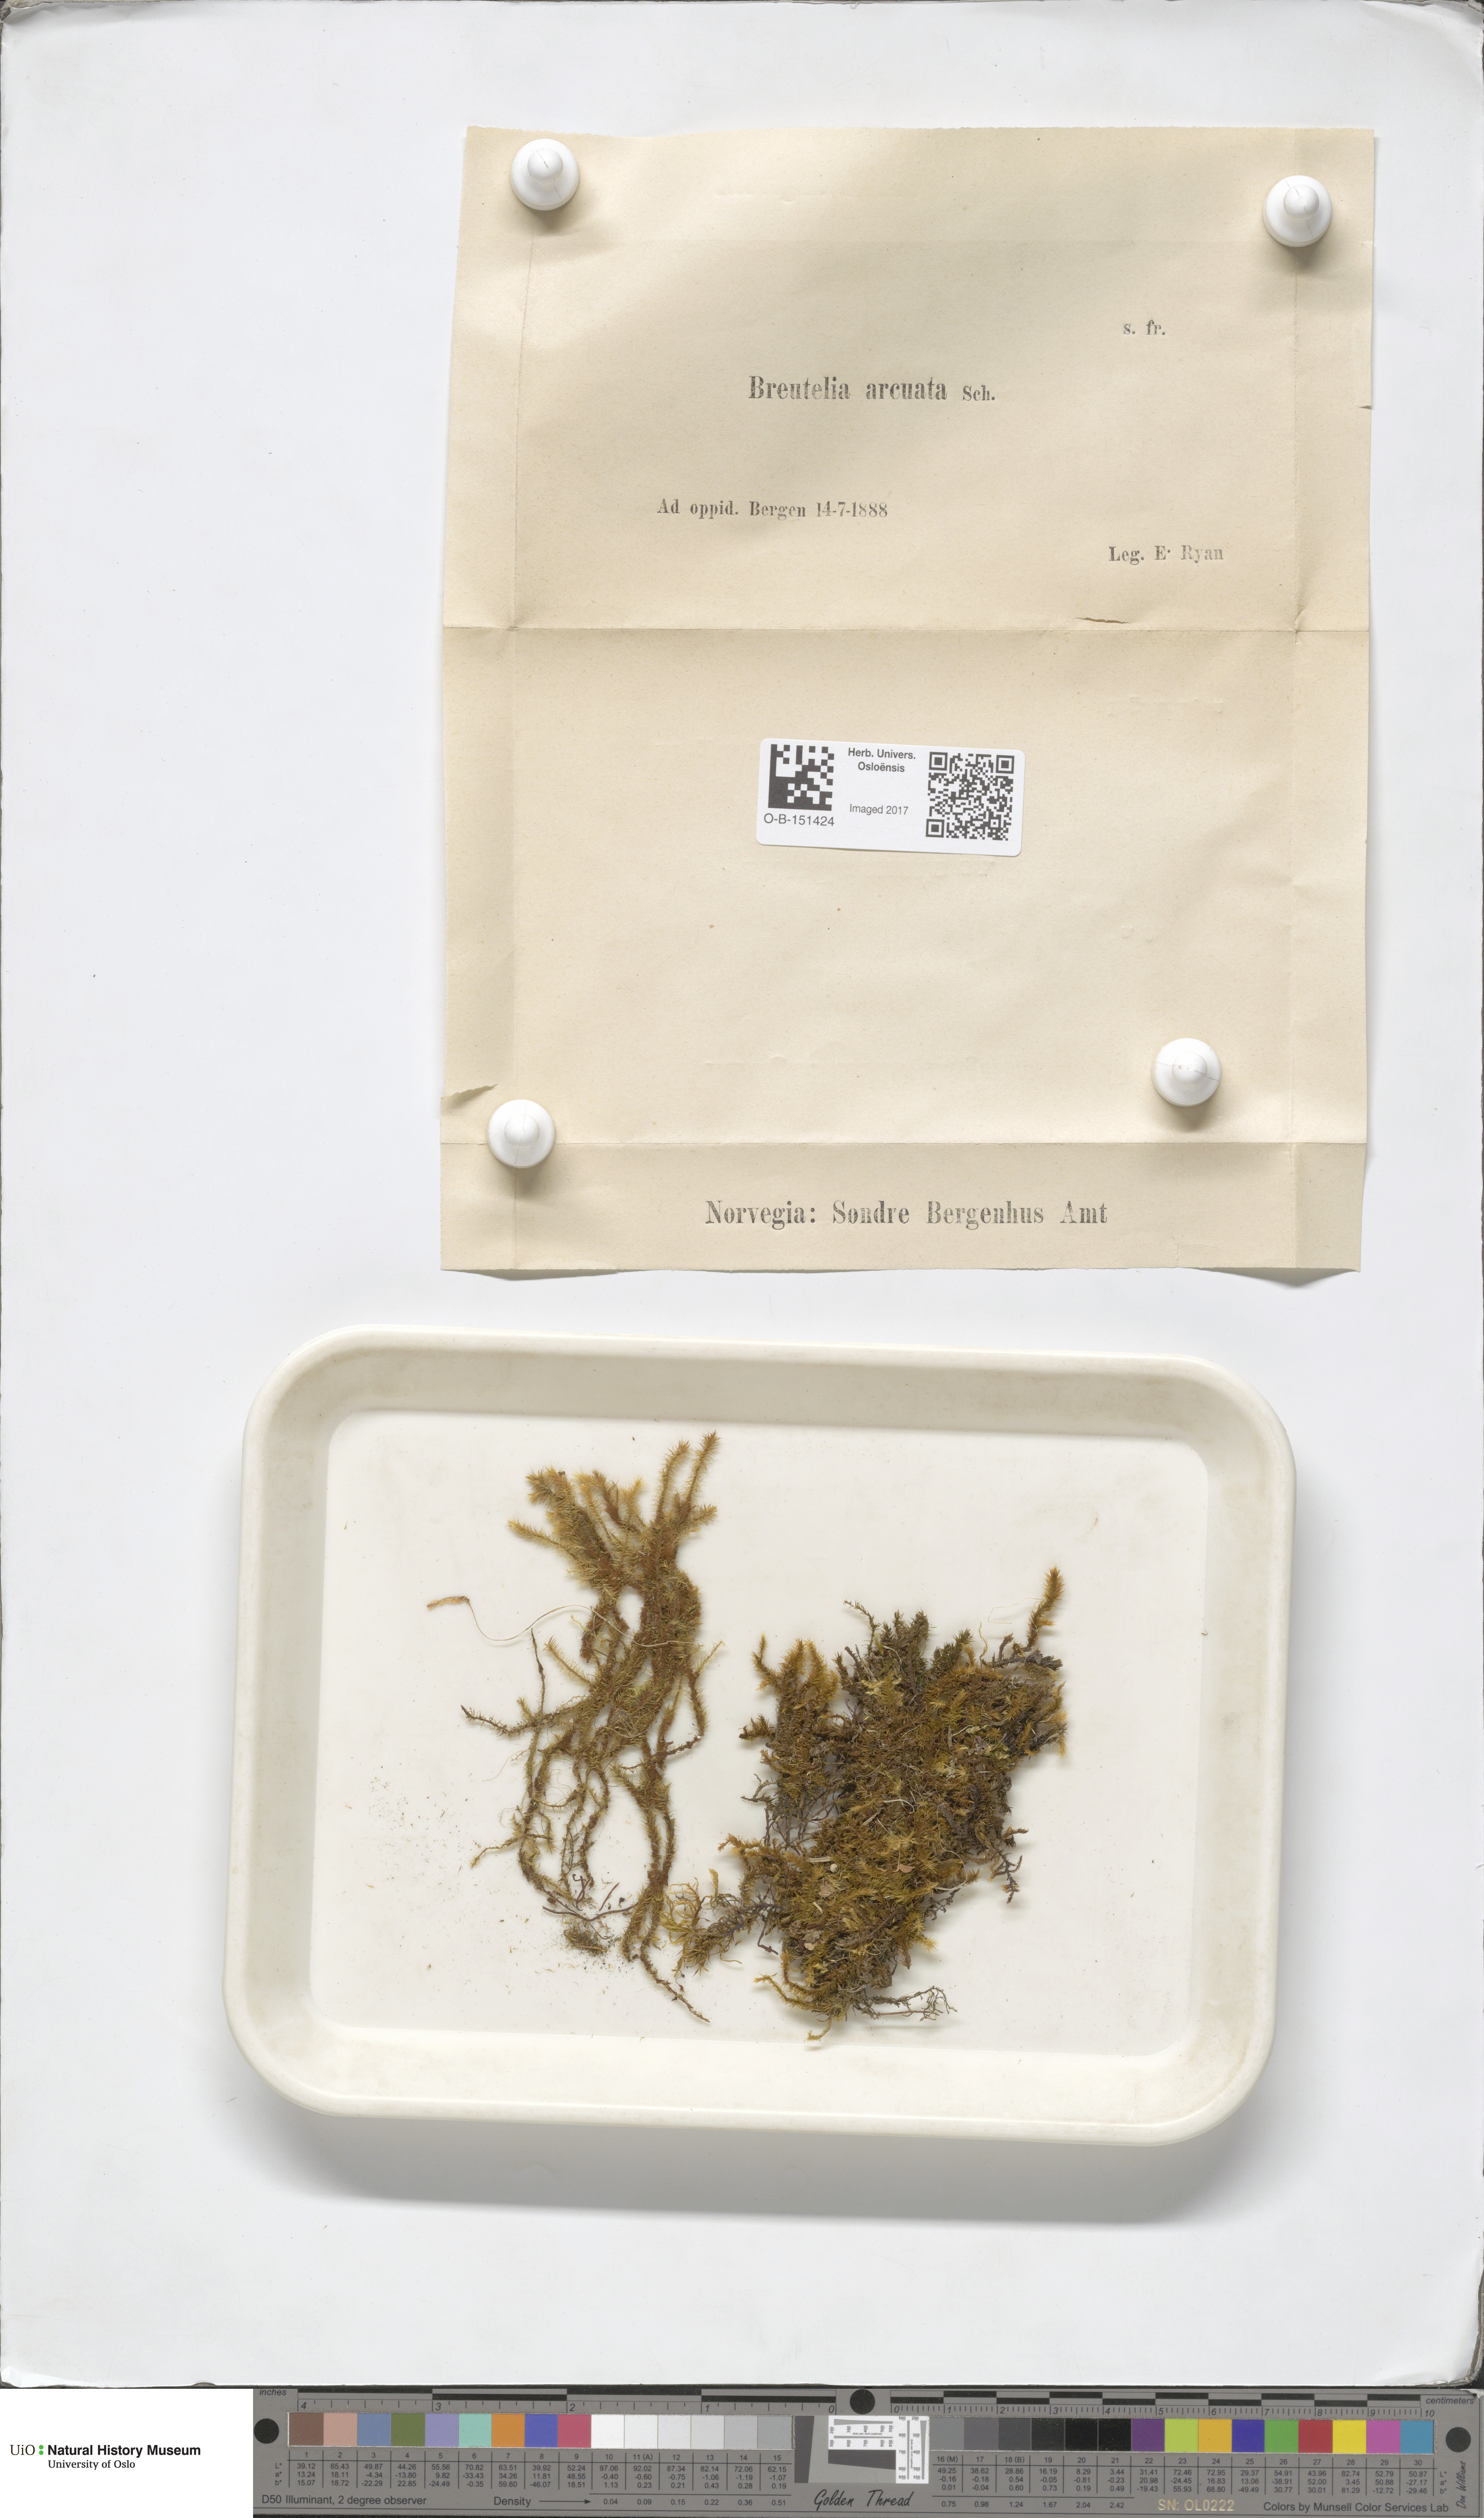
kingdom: Plantae
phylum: Bryophyta
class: Bryopsida
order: Bartramiales
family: Bartramiaceae
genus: Breutelia
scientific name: Breutelia chrysocoma
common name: Bottle-brush moss
